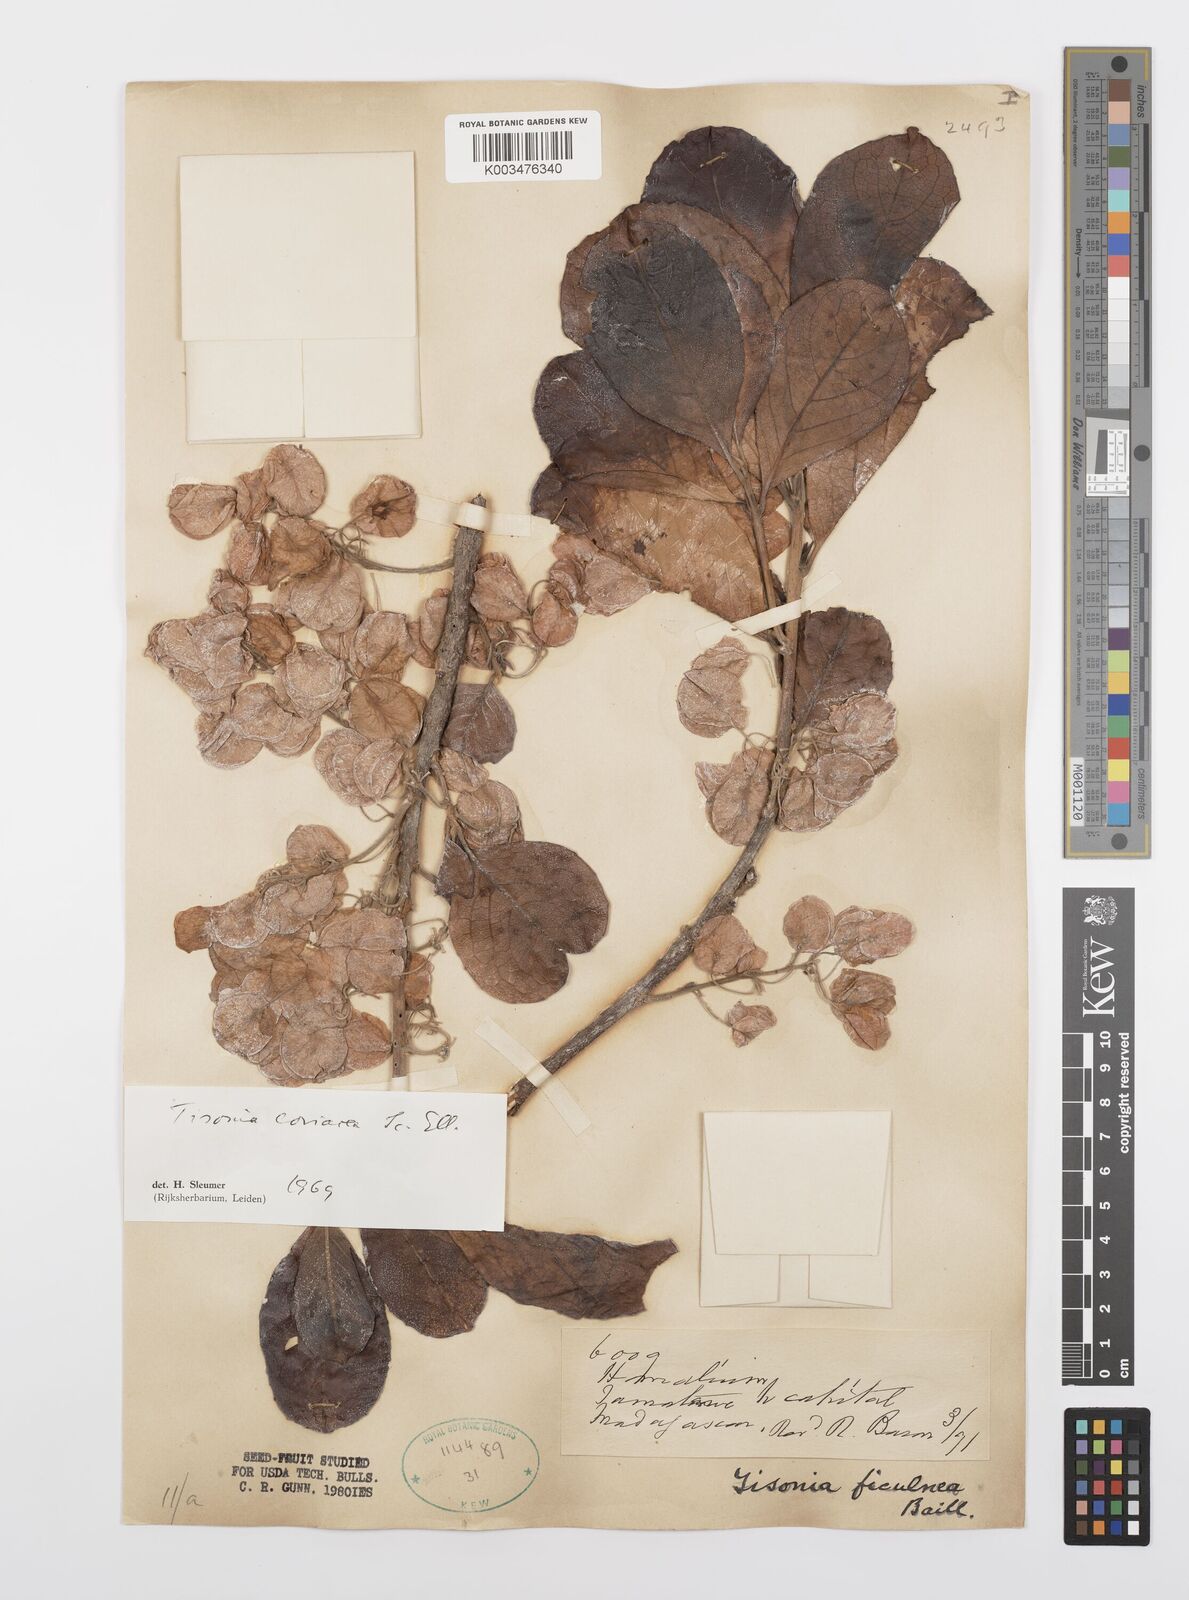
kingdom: Plantae
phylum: Tracheophyta
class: Magnoliopsida
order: Malpighiales
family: Salicaceae
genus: Tisonia
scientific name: Tisonia coriacea
